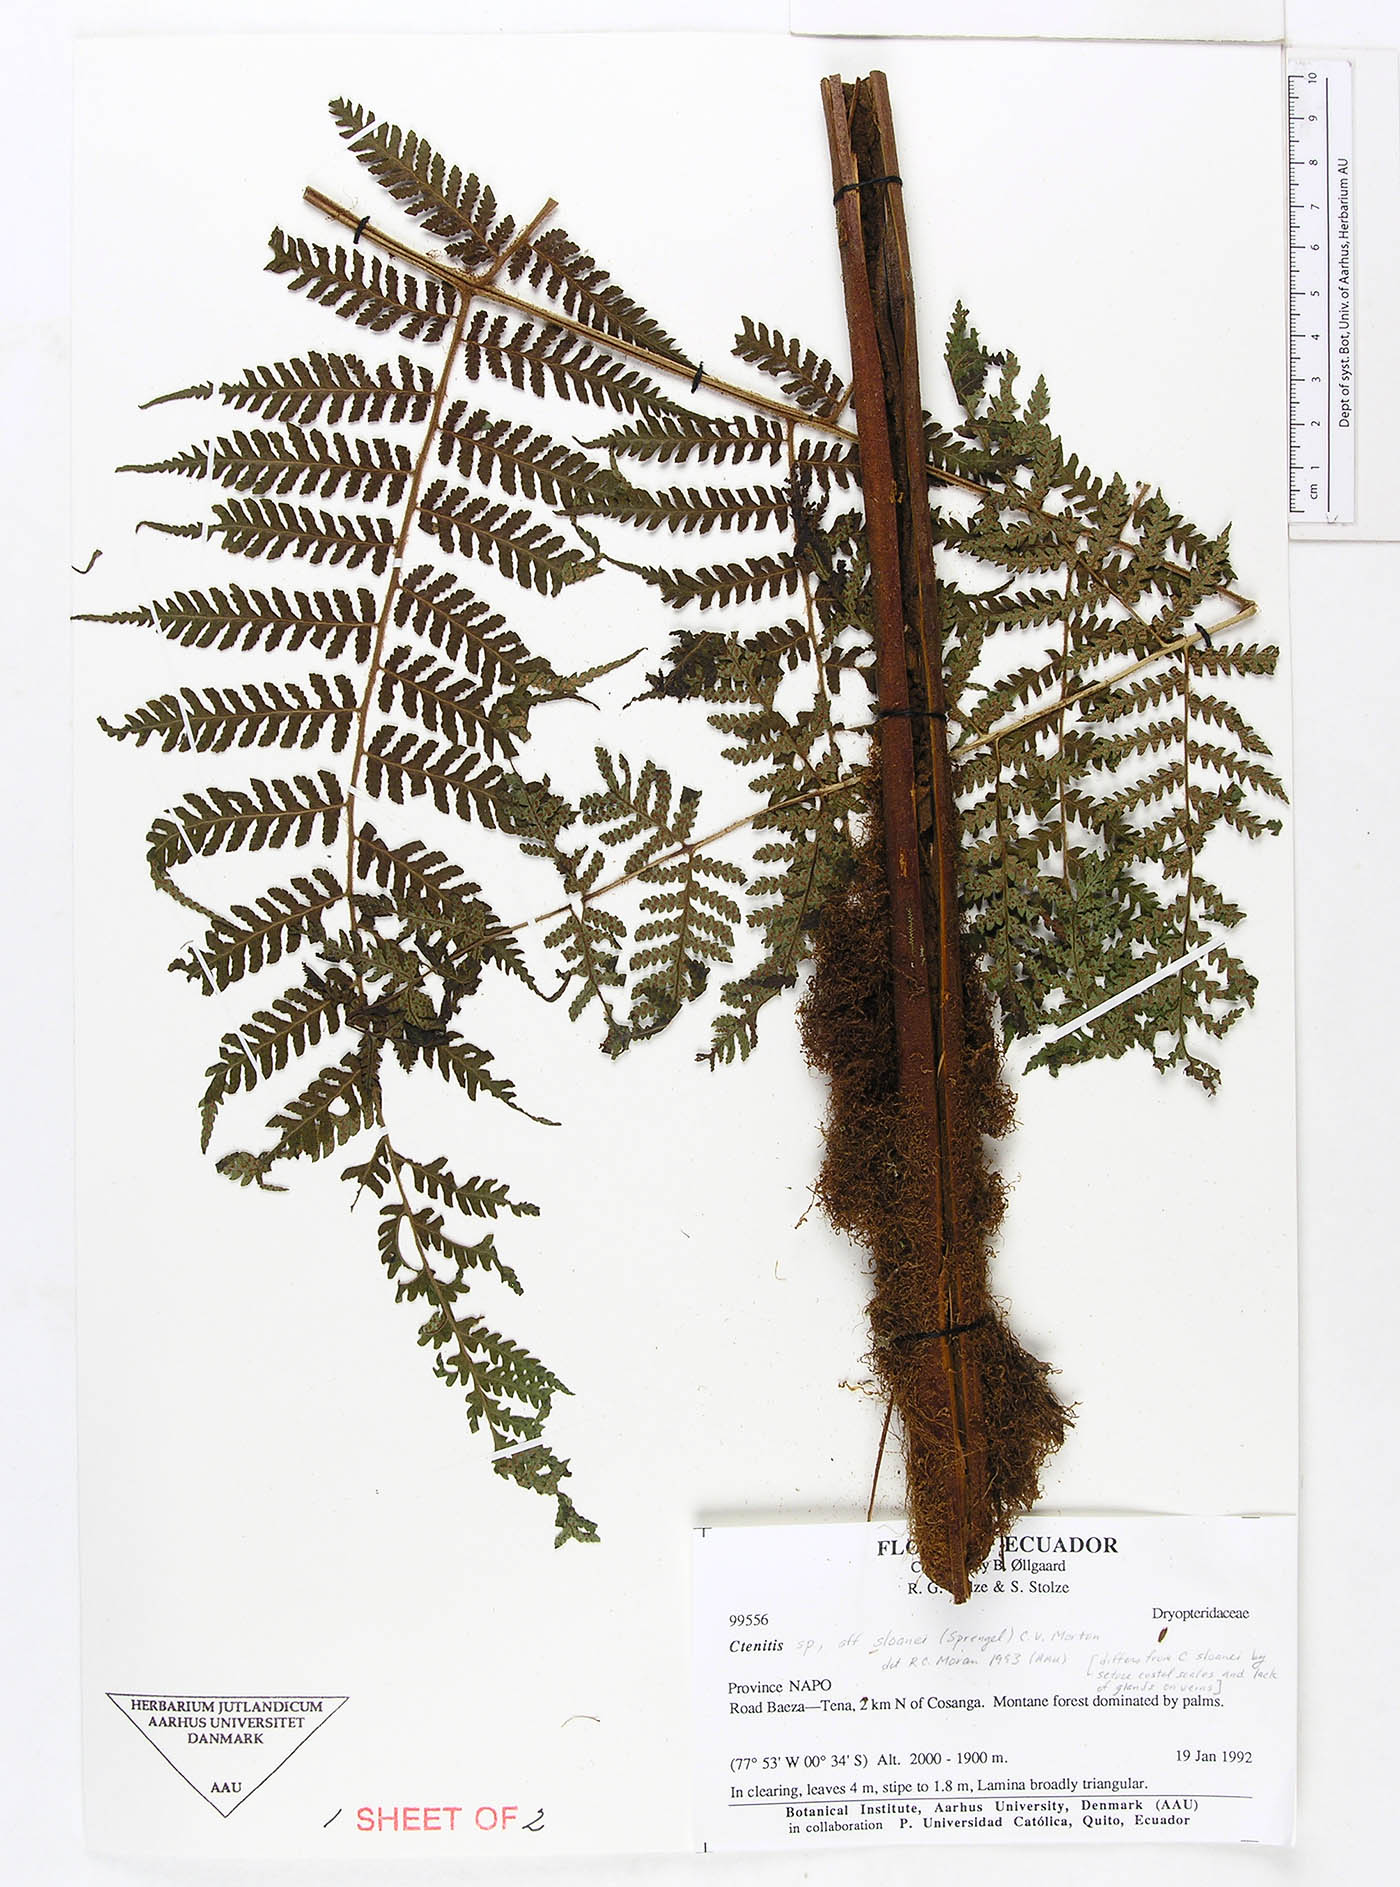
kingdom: Plantae
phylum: Tracheophyta
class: Polypodiopsida
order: Polypodiales
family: Dryopteridaceae
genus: Megalastrum
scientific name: Megalastrum fugaceum
